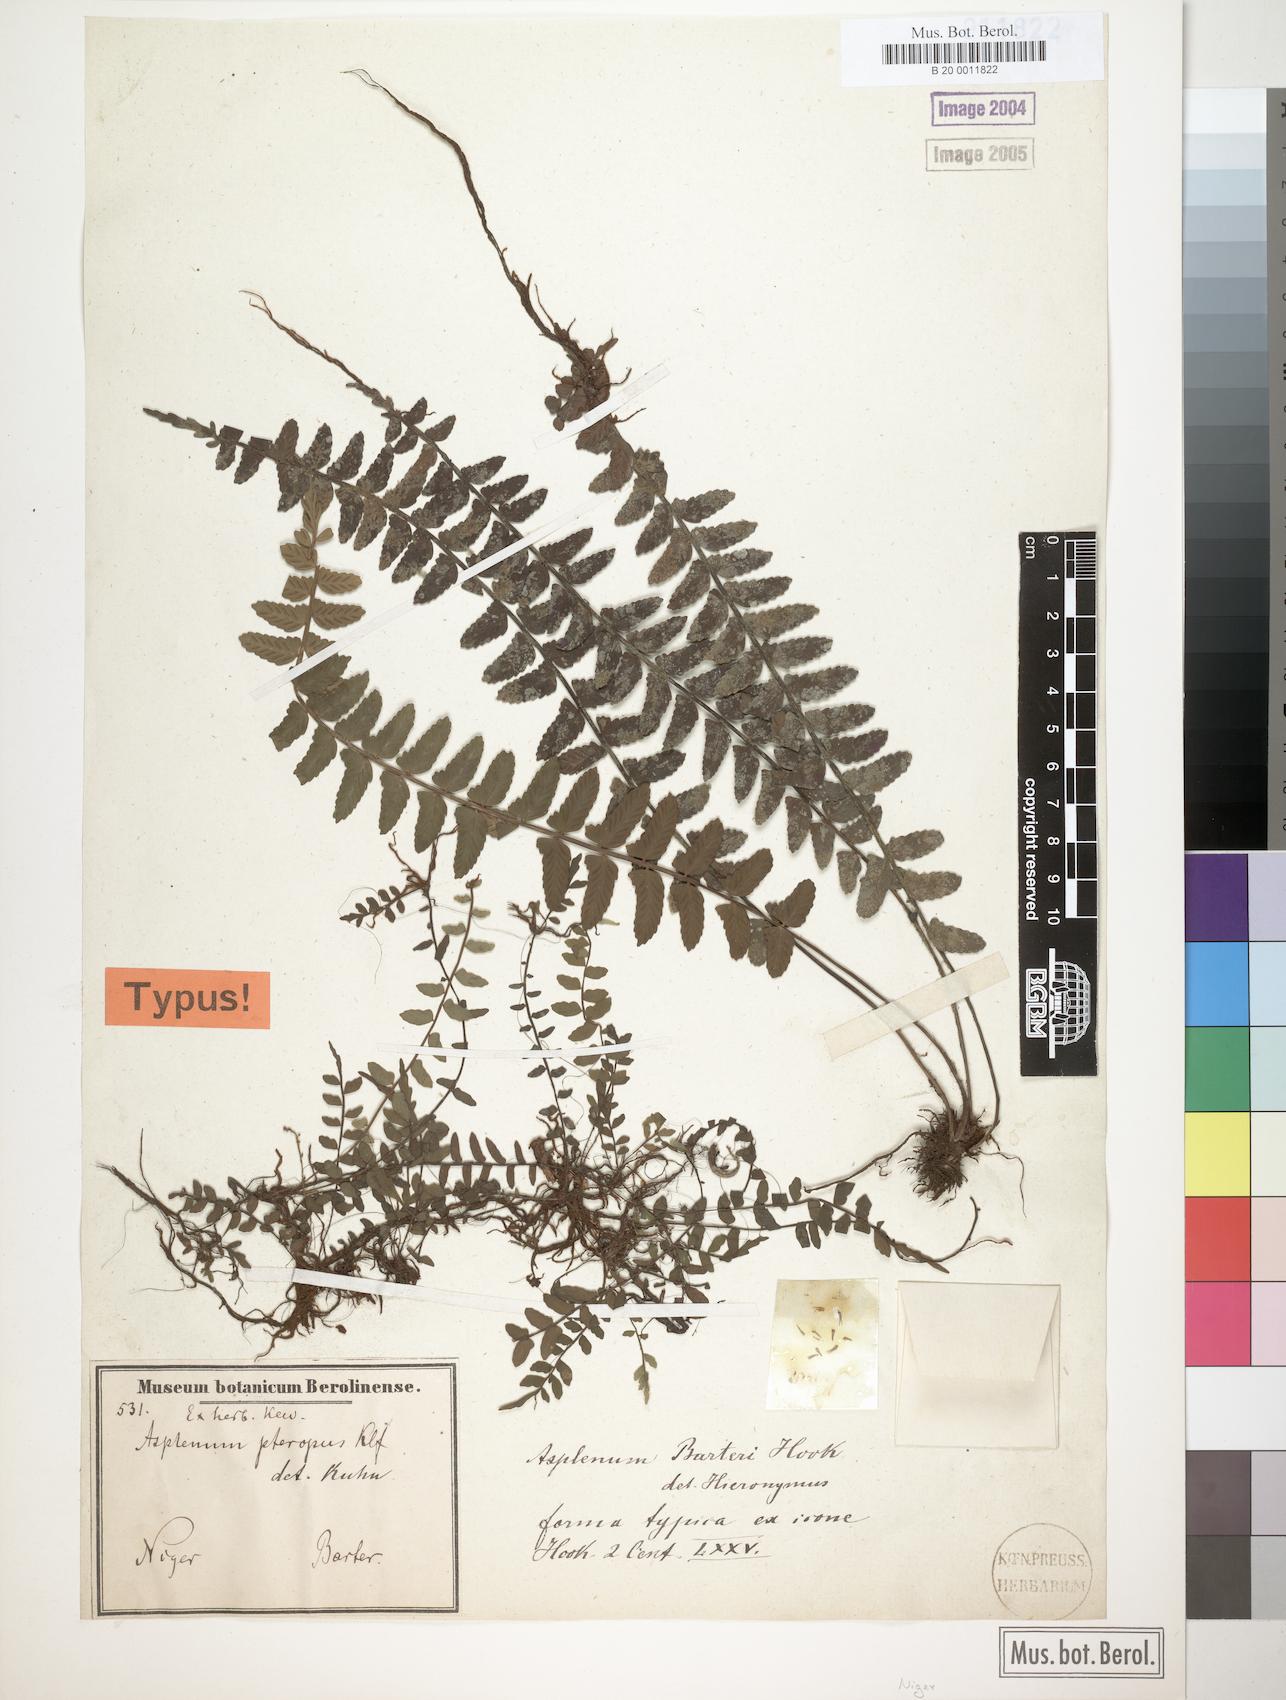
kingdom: Plantae
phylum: Tracheophyta
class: Polypodiopsida
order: Polypodiales
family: Aspleniaceae
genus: Asplenium
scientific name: Asplenium barteri
